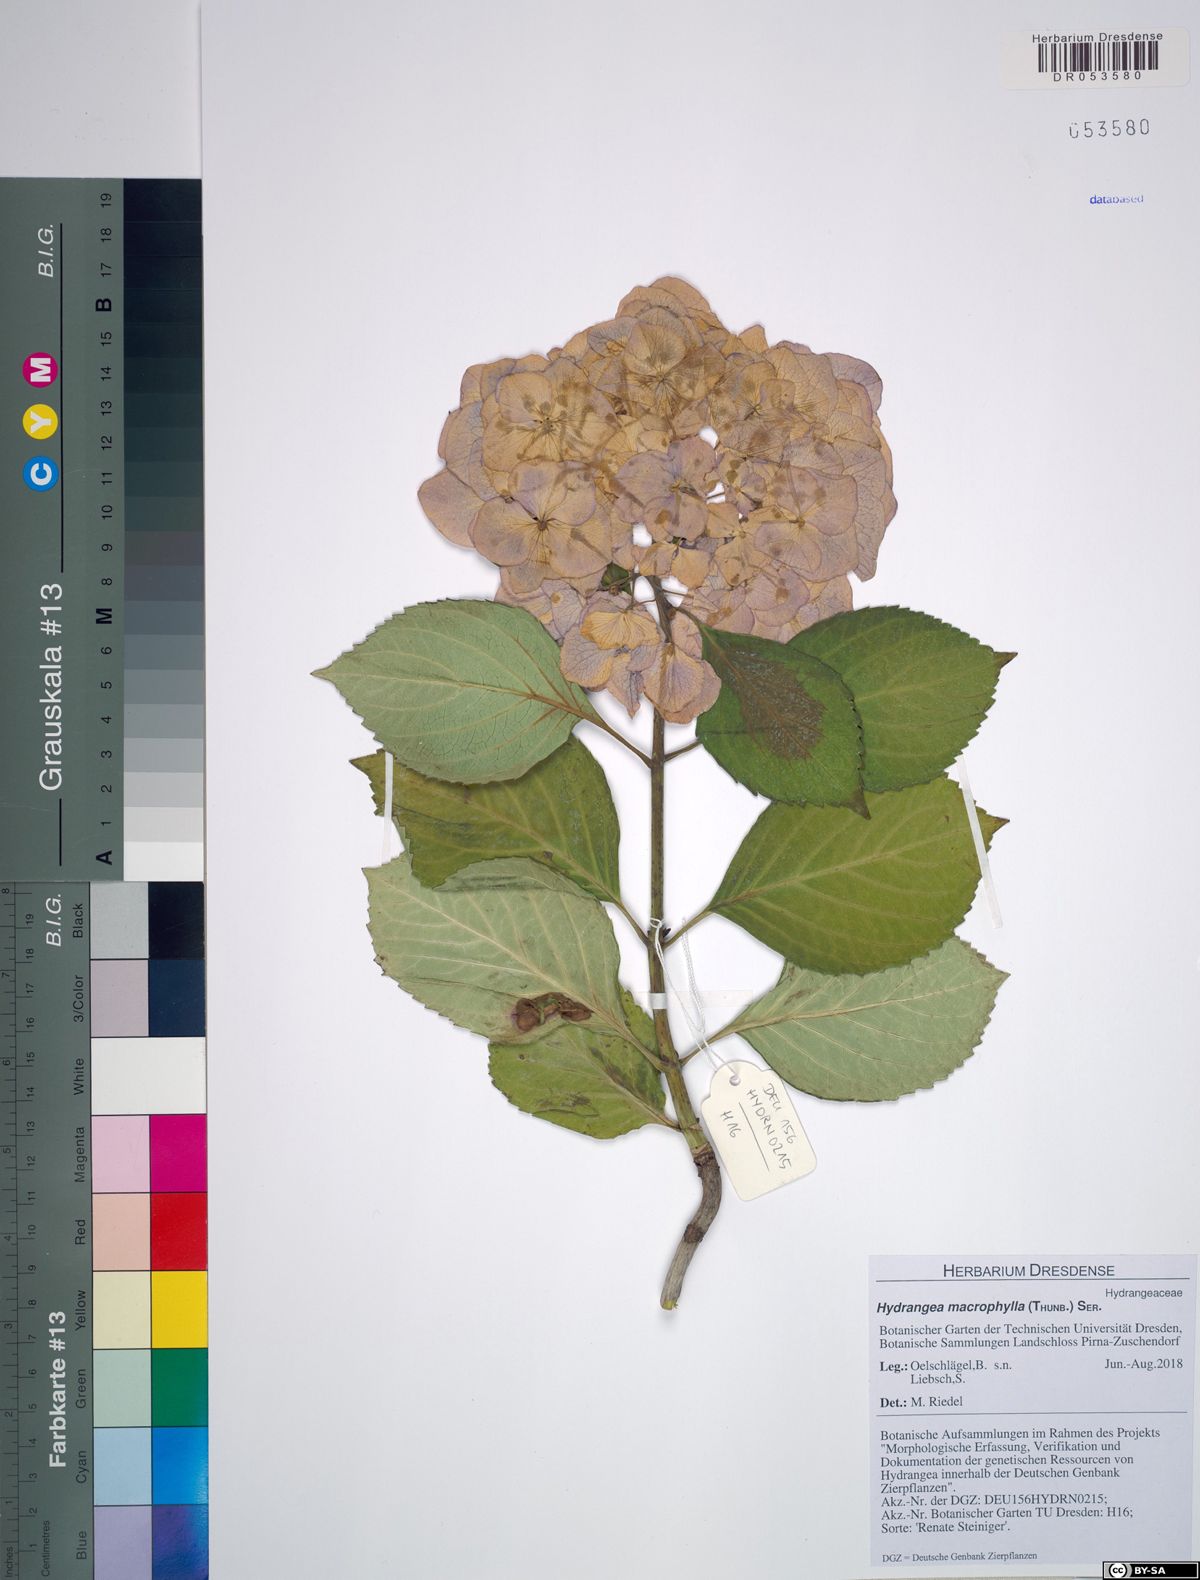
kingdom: Plantae
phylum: Tracheophyta
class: Magnoliopsida
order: Cornales
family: Hydrangeaceae
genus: Hydrangea
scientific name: Hydrangea macrophylla
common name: Hydrangea
